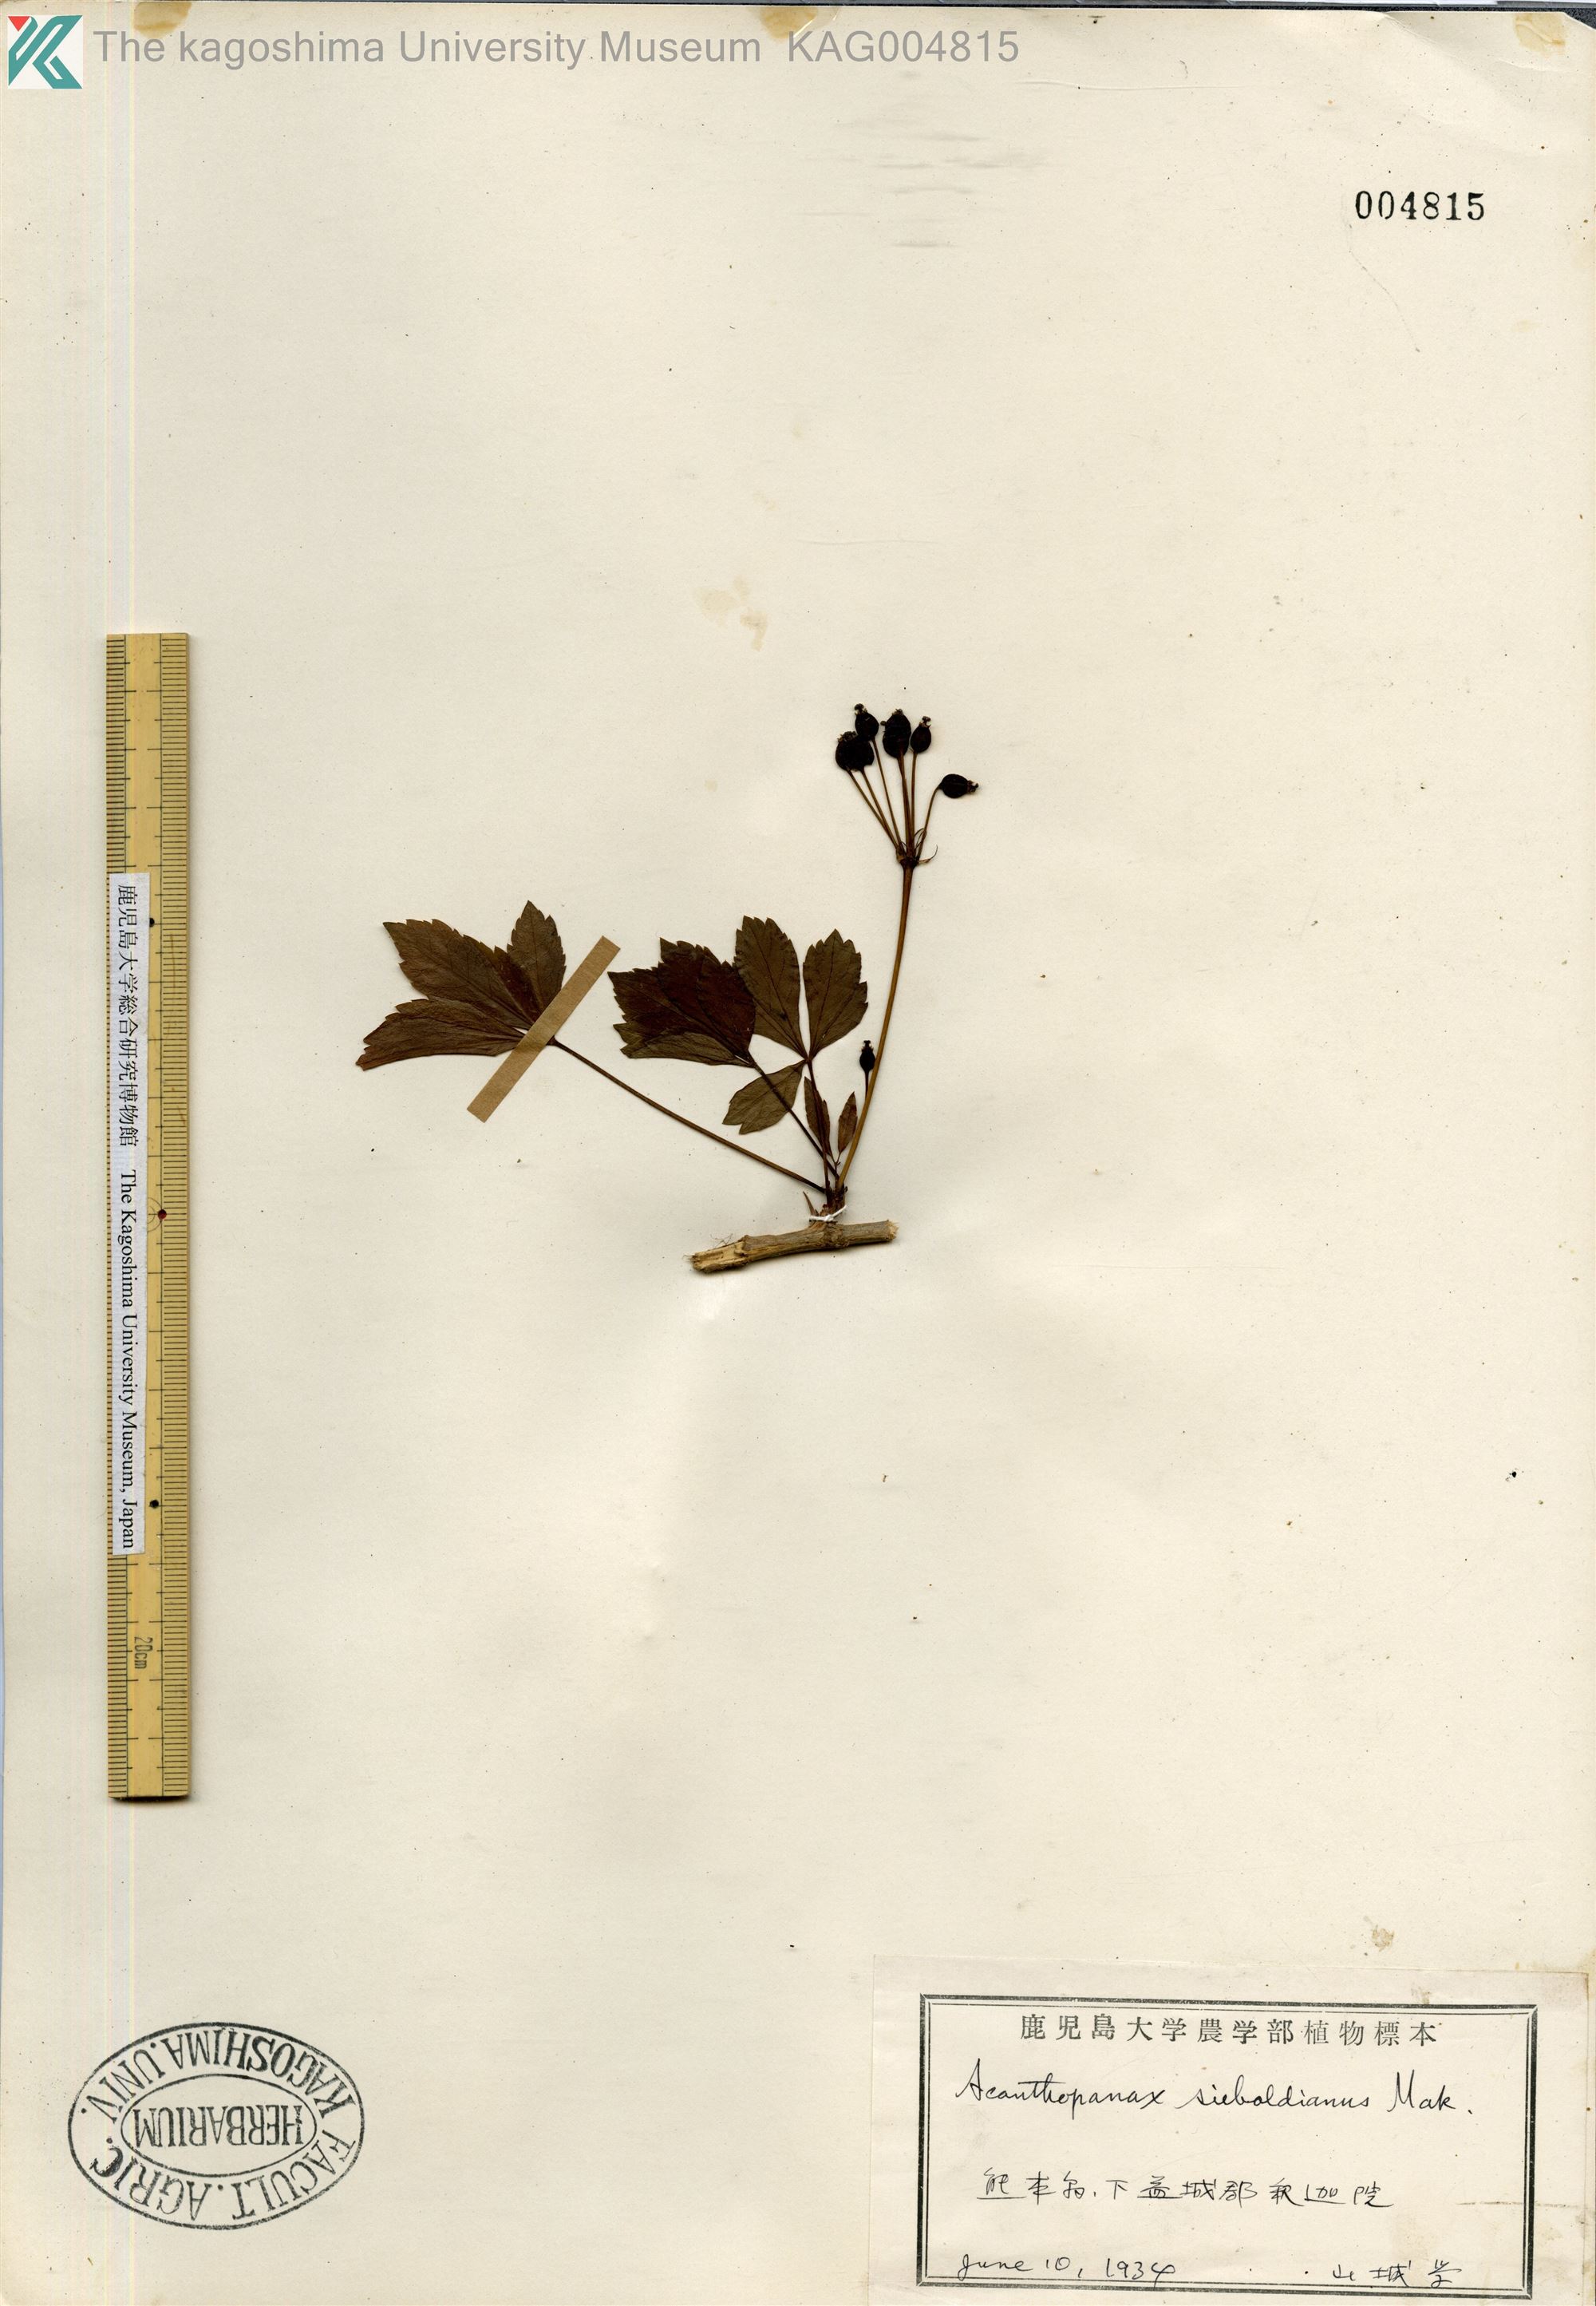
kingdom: Plantae
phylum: Tracheophyta
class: Magnoliopsida
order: Apiales
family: Araliaceae
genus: Eleutherococcus
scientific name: Eleutherococcus sieboldianus
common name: Ginseng
